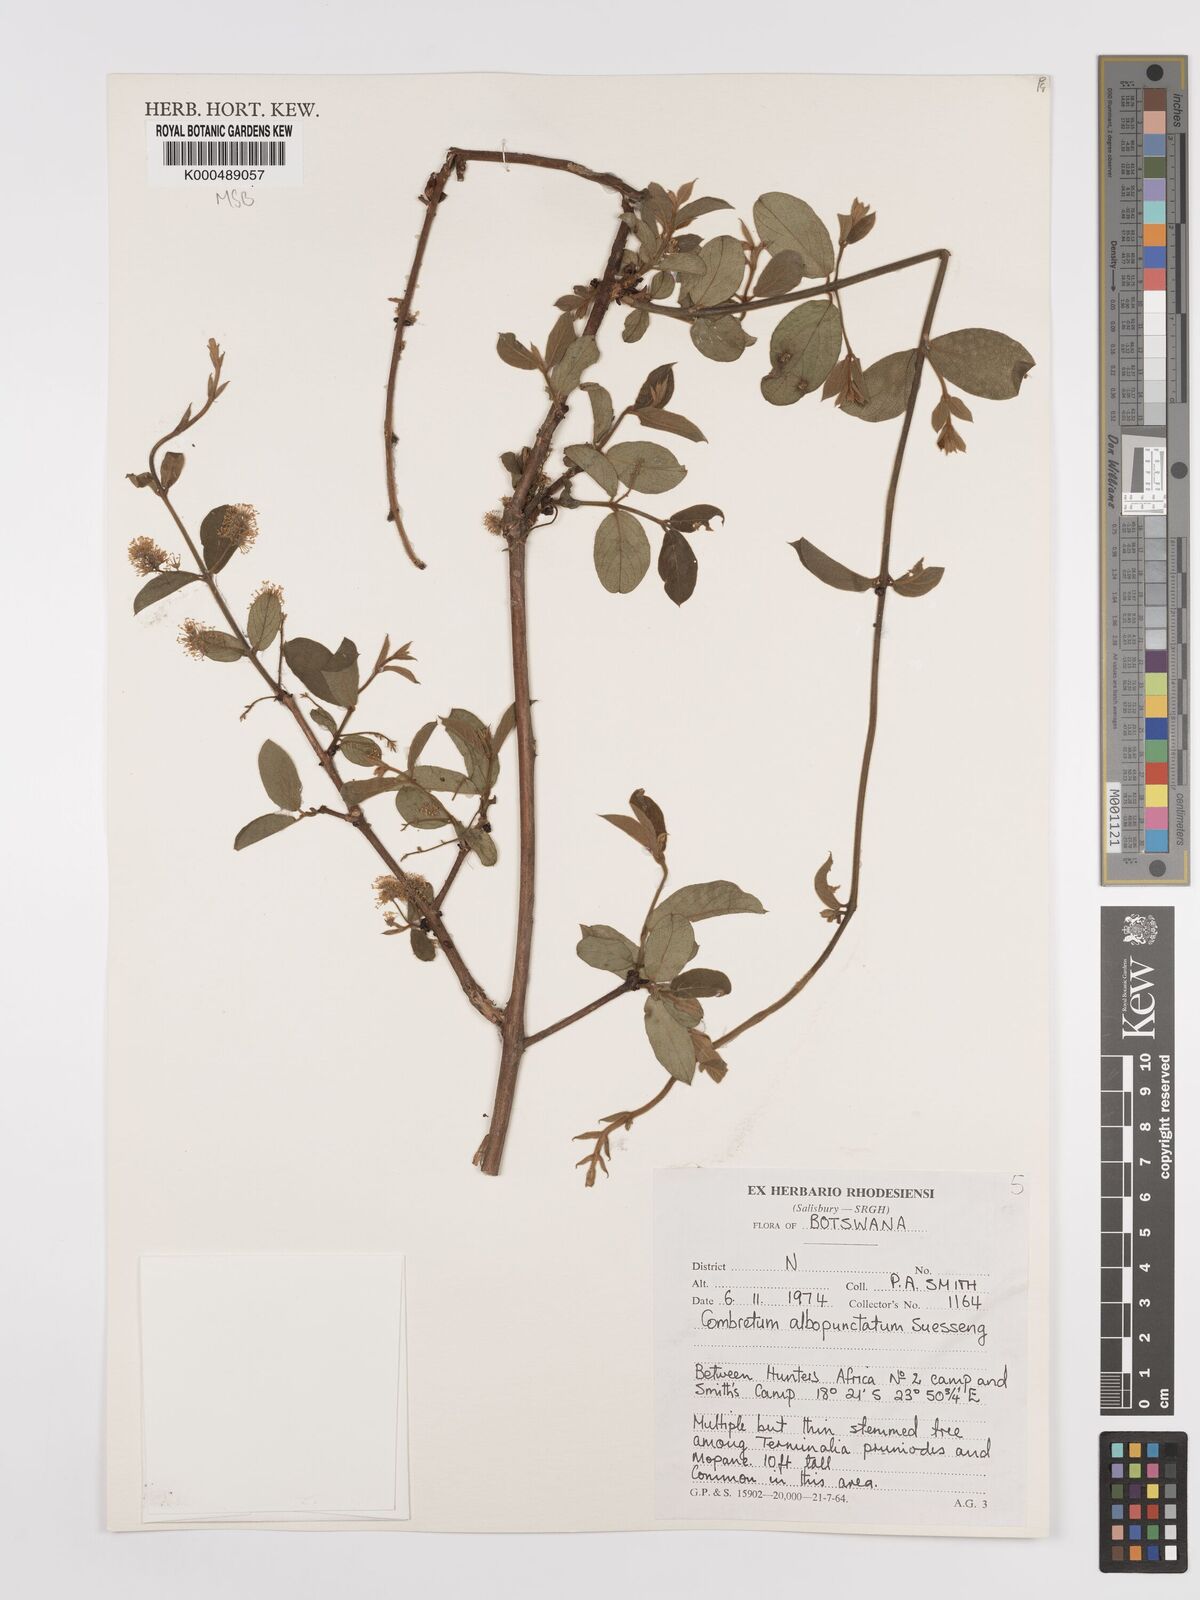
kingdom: Plantae
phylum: Tracheophyta
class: Magnoliopsida
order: Myrtales
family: Combretaceae
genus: Combretum
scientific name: Combretum albopunctatum
